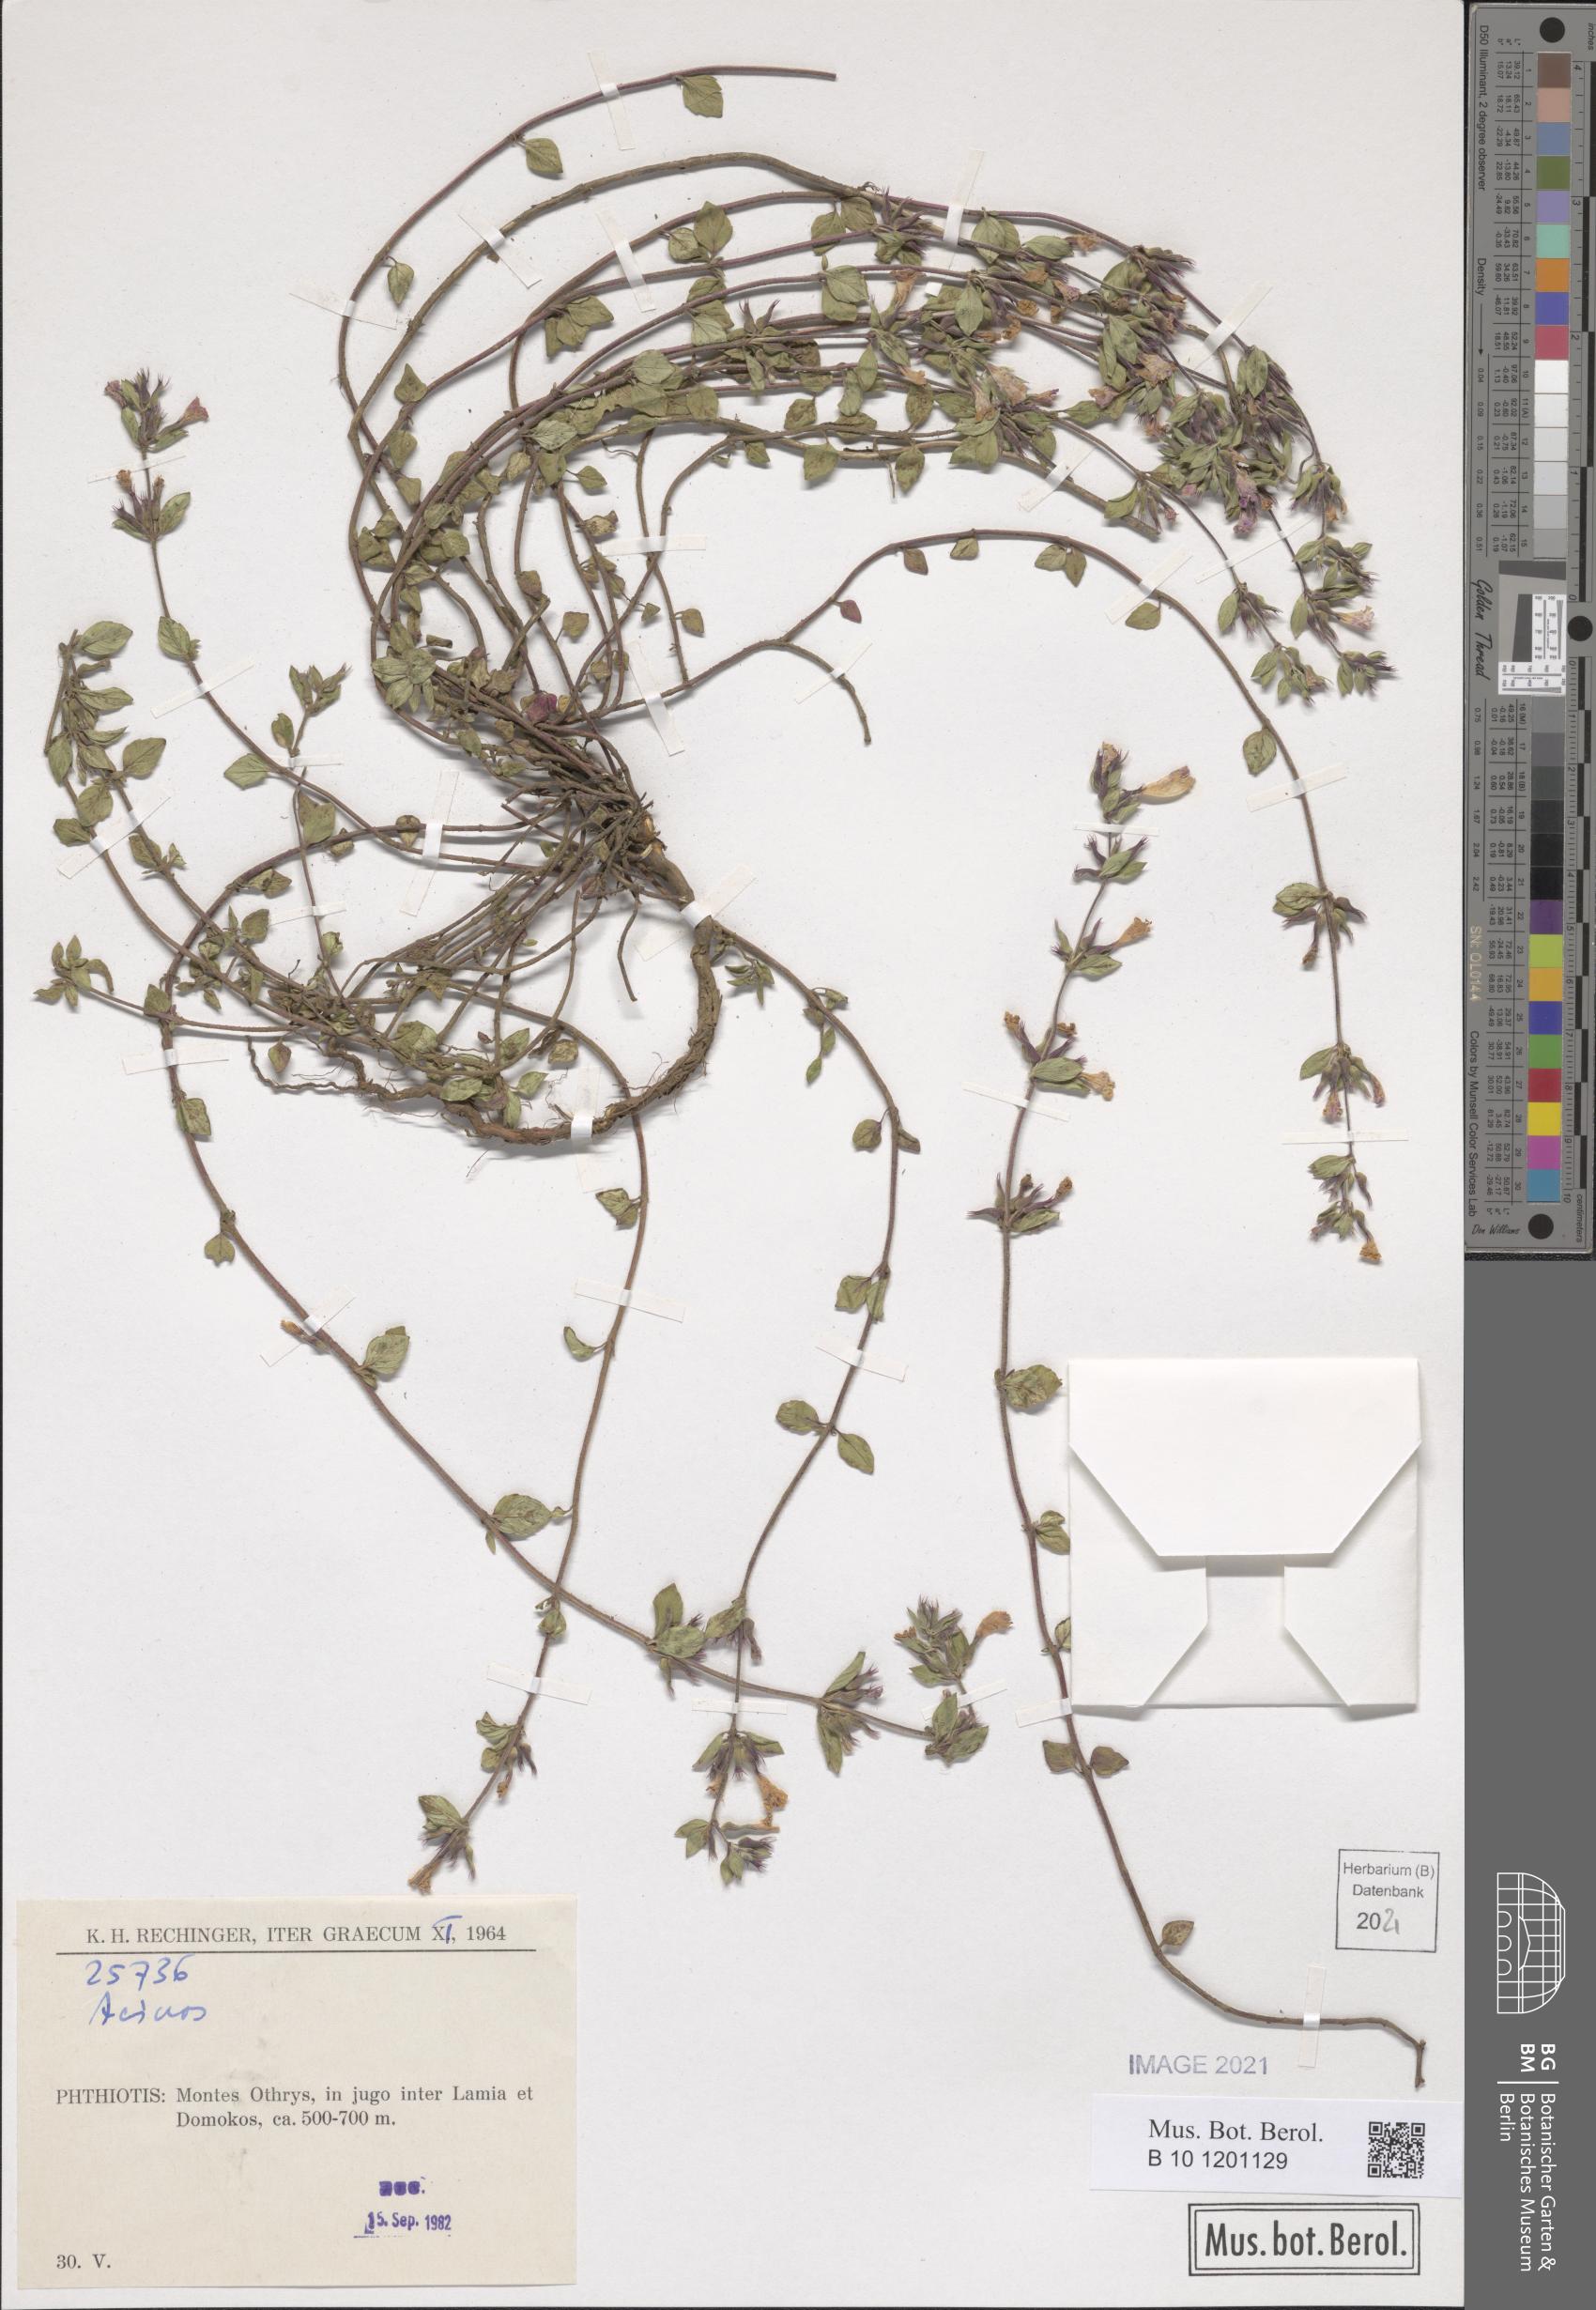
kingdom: Plantae
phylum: Tracheophyta
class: Magnoliopsida
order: Caryophyllales
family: Caryophyllaceae
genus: Cerastium
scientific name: Cerastium brachypetalum
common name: Grey mouse-ear
